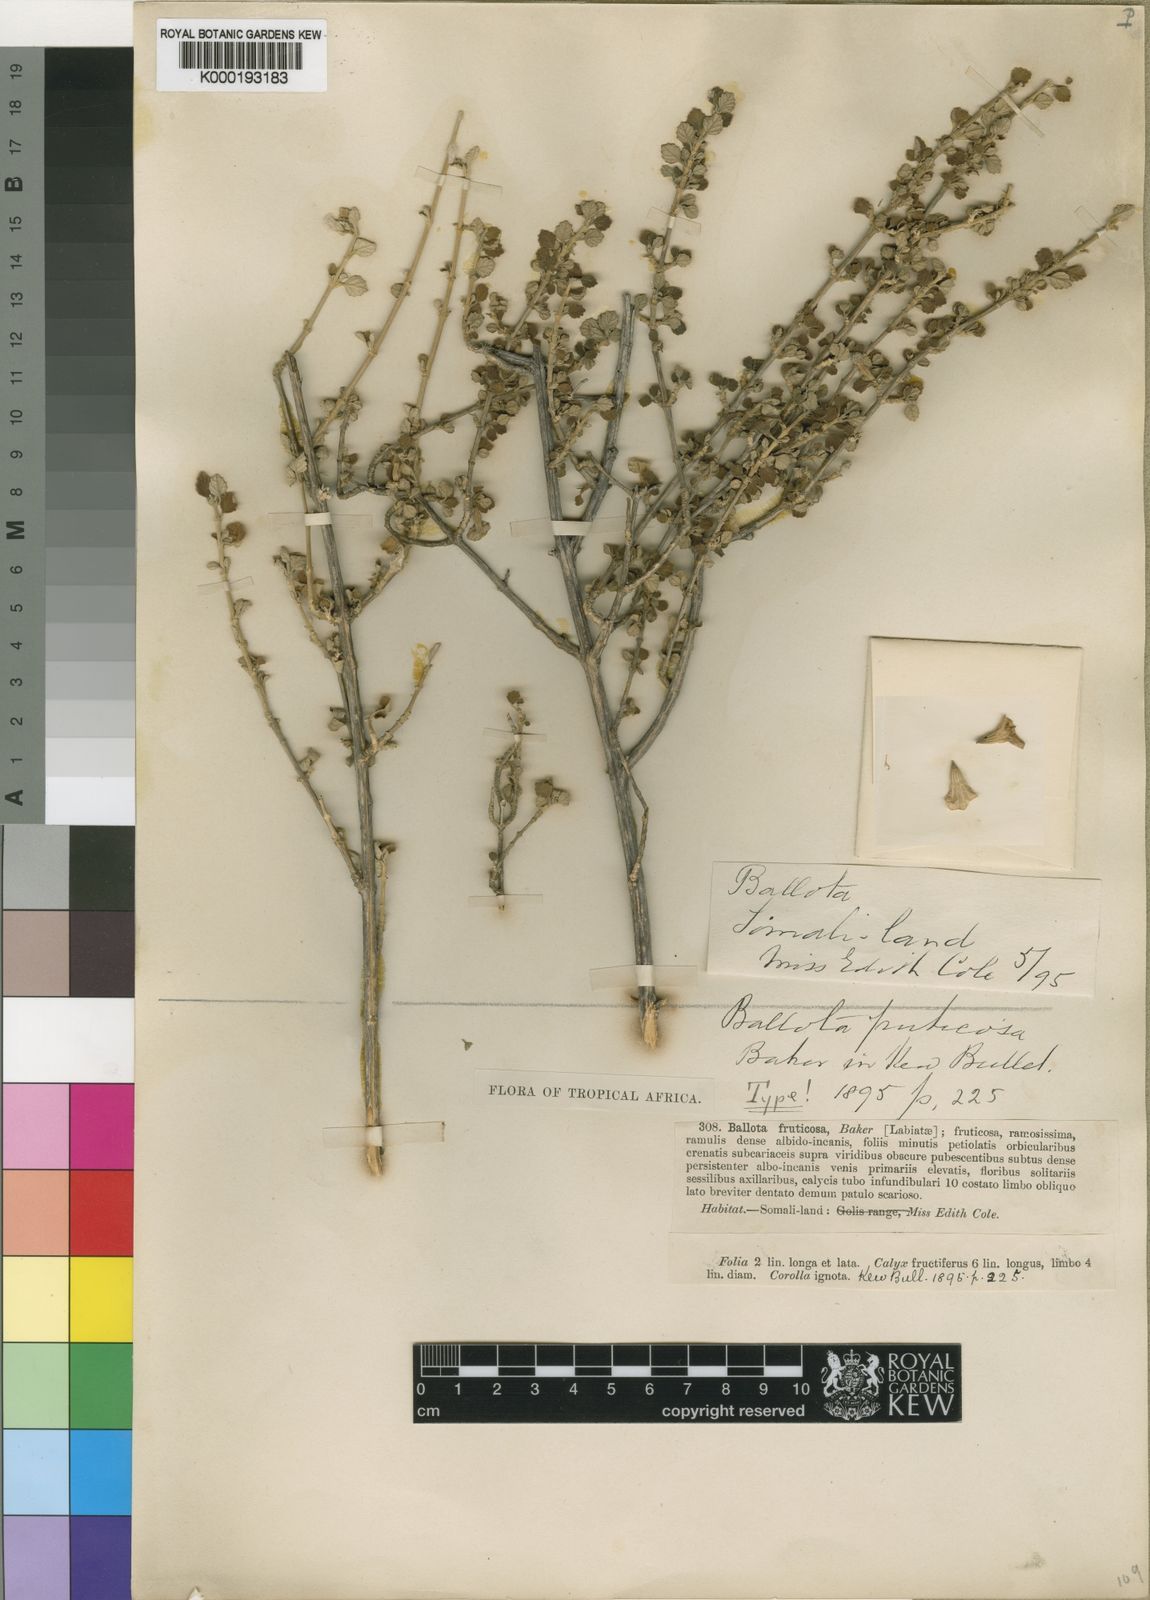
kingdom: Plantae
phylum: Tracheophyta
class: Magnoliopsida
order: Lamiales
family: Lamiaceae
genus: Otostegia
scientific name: Otostegia
